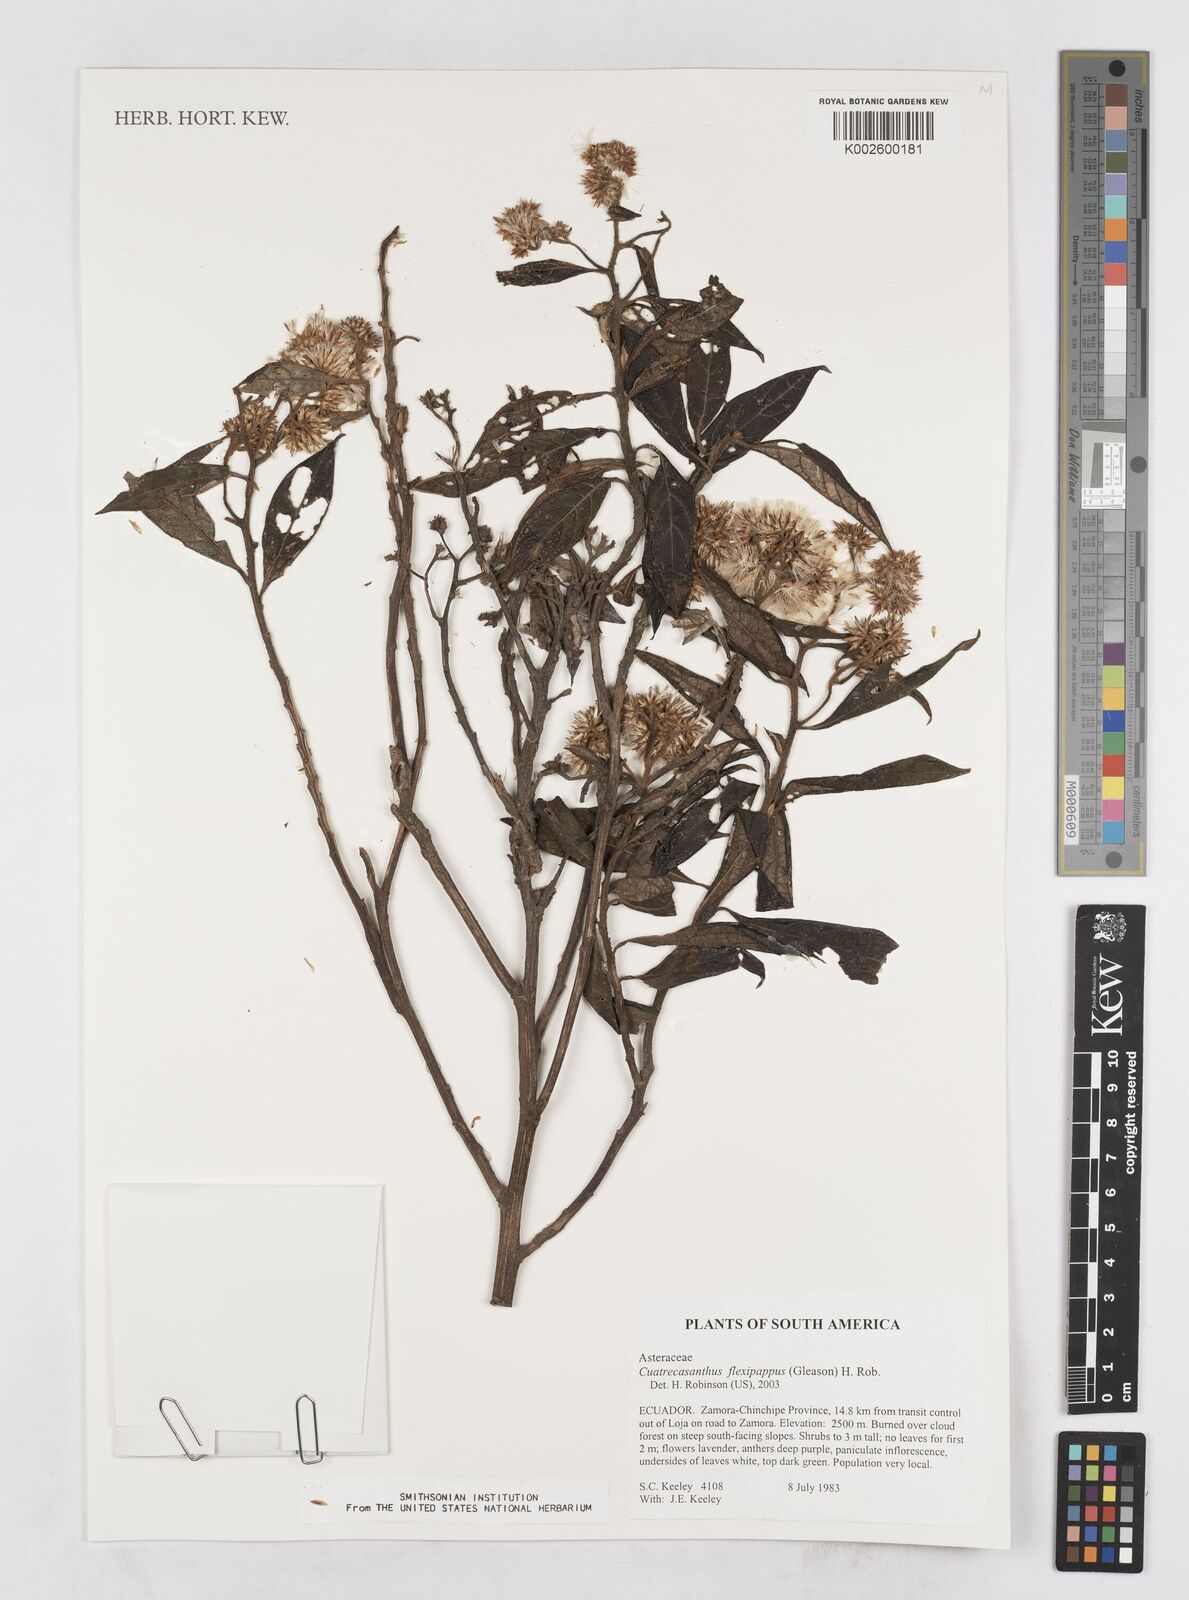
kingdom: Plantae
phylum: Tracheophyta
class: Magnoliopsida
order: Asterales
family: Asteraceae
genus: Cuatrecasanthus
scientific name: Cuatrecasanthus flexipappus
